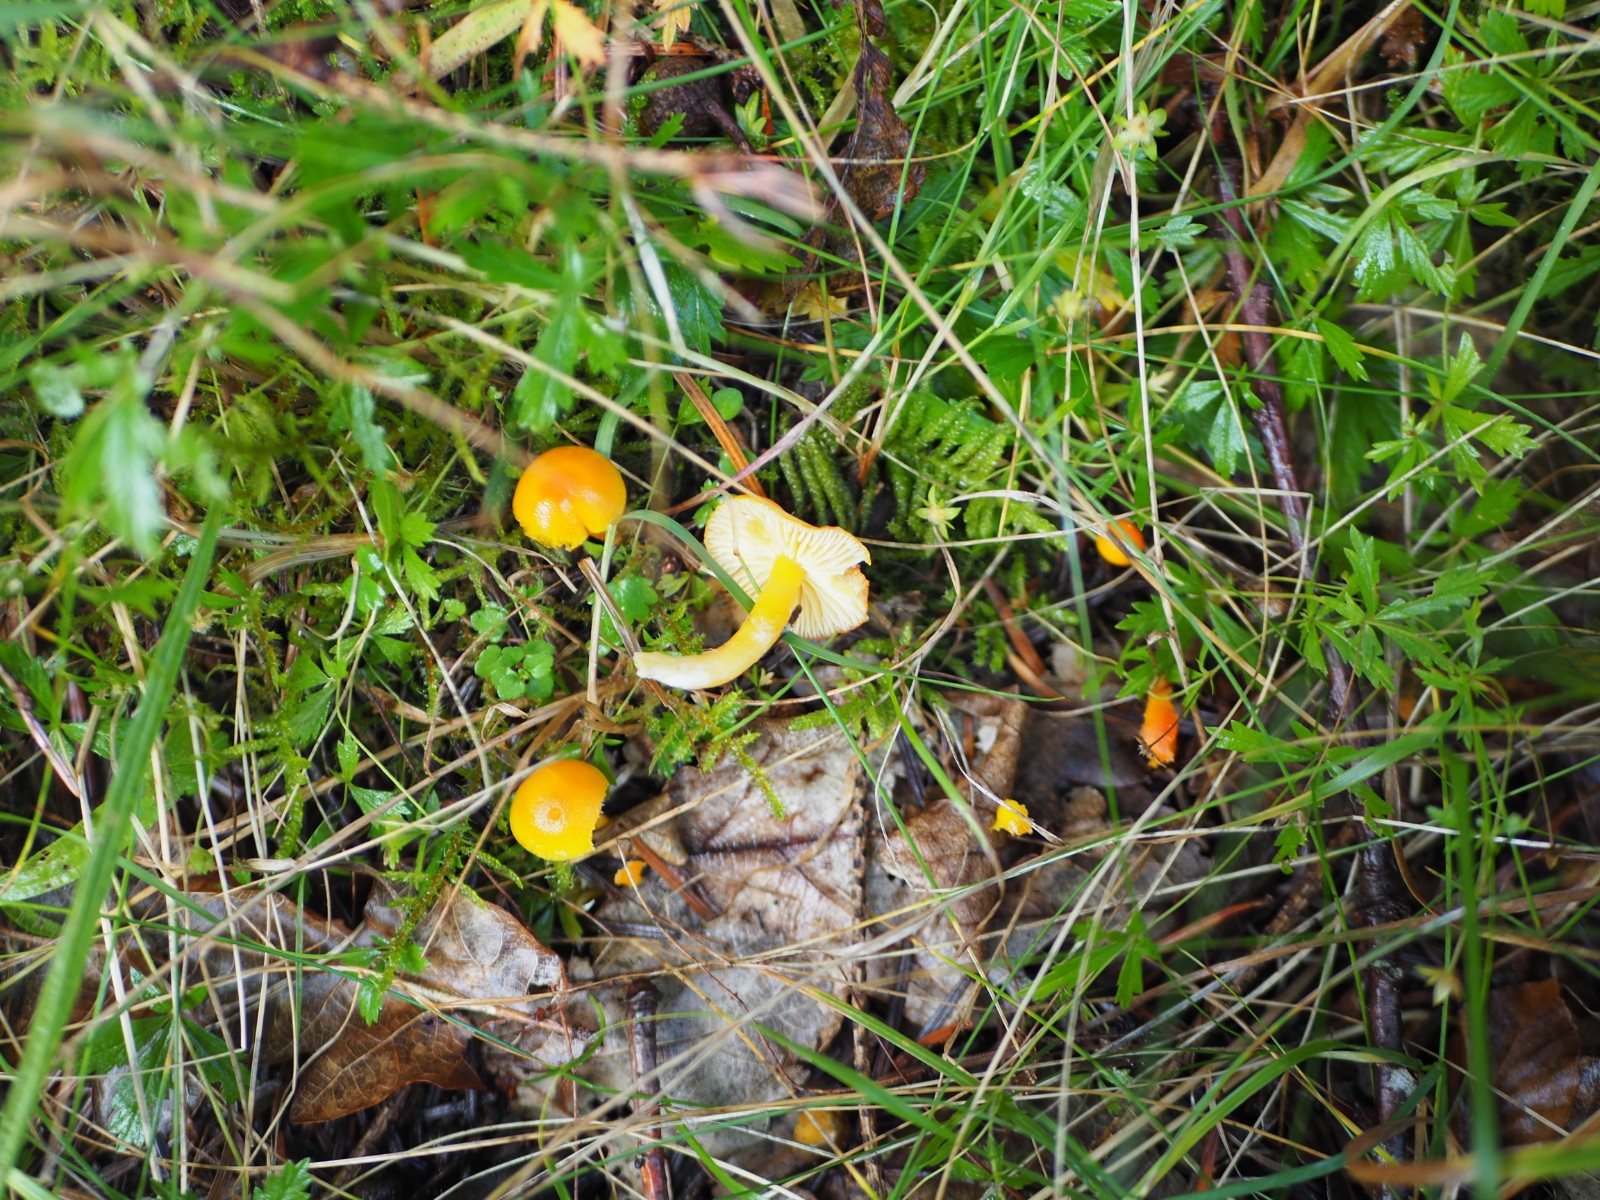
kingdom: Fungi
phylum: Basidiomycota
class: Agaricomycetes
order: Agaricales
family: Hygrophoraceae
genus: Hygrocybe
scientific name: Hygrocybe ceracea
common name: voksgul vokshat
